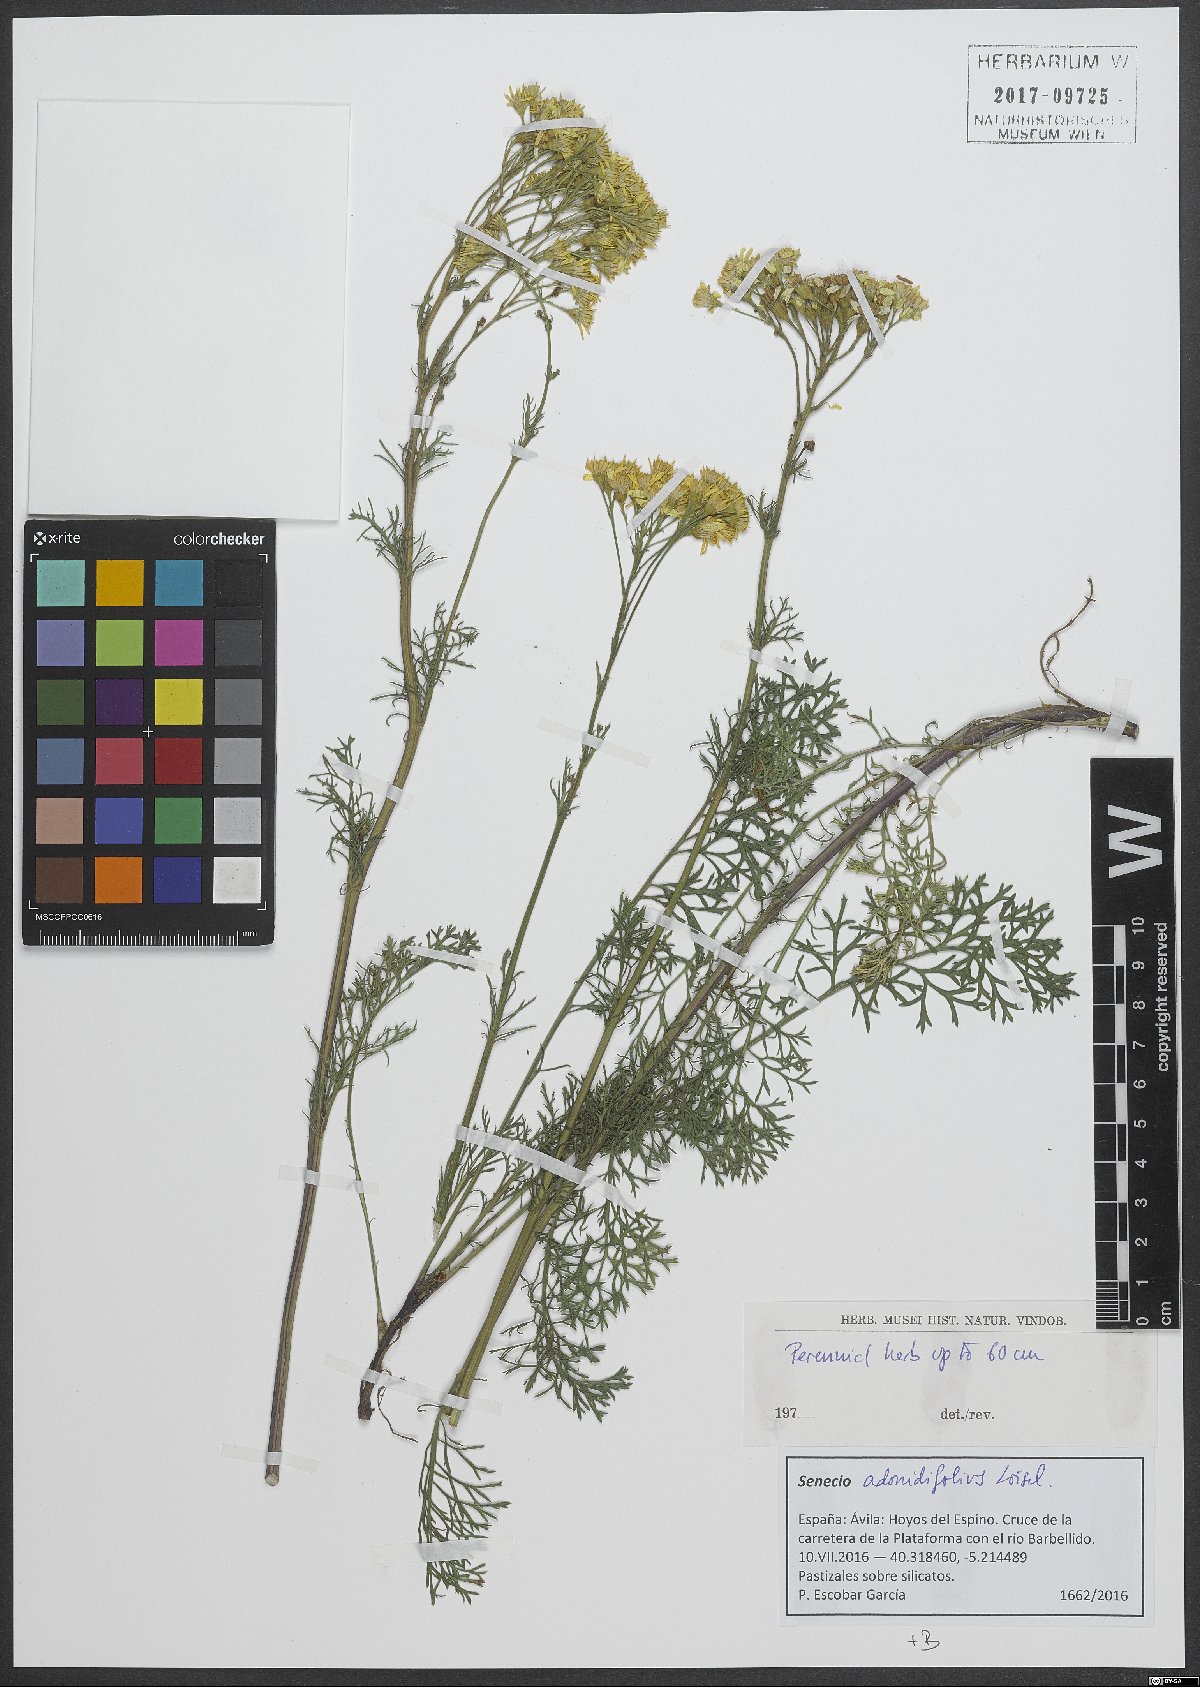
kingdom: Plantae
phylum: Tracheophyta
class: Magnoliopsida
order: Asterales
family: Asteraceae
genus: Jacobaea
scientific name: Jacobaea adonidifolia
